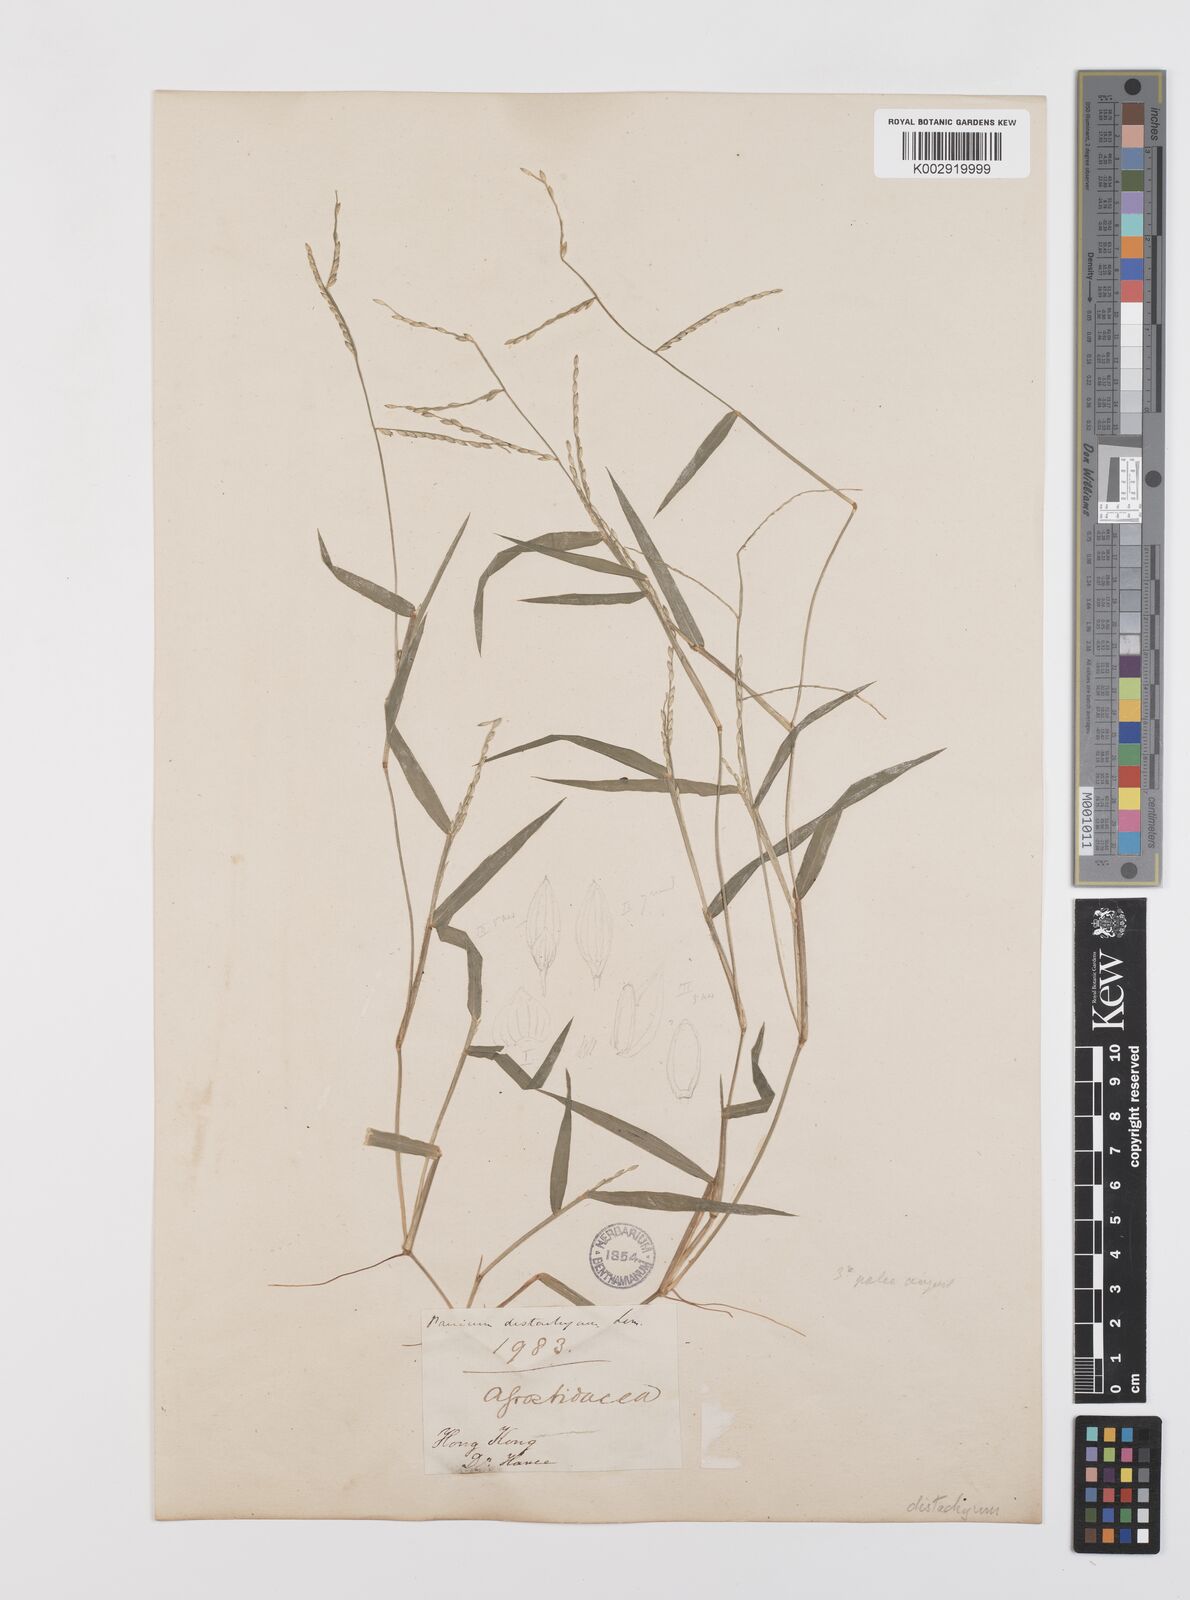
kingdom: Plantae
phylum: Tracheophyta
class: Liliopsida
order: Poales
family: Poaceae
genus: Urochloa
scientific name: Urochloa subquadripara
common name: Armgrass millet
